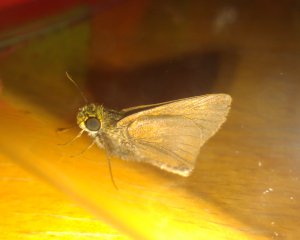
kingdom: Animalia
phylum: Arthropoda
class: Insecta
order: Lepidoptera
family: Hesperiidae
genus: Euphyes
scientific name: Euphyes vestris
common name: Dun Skipper
